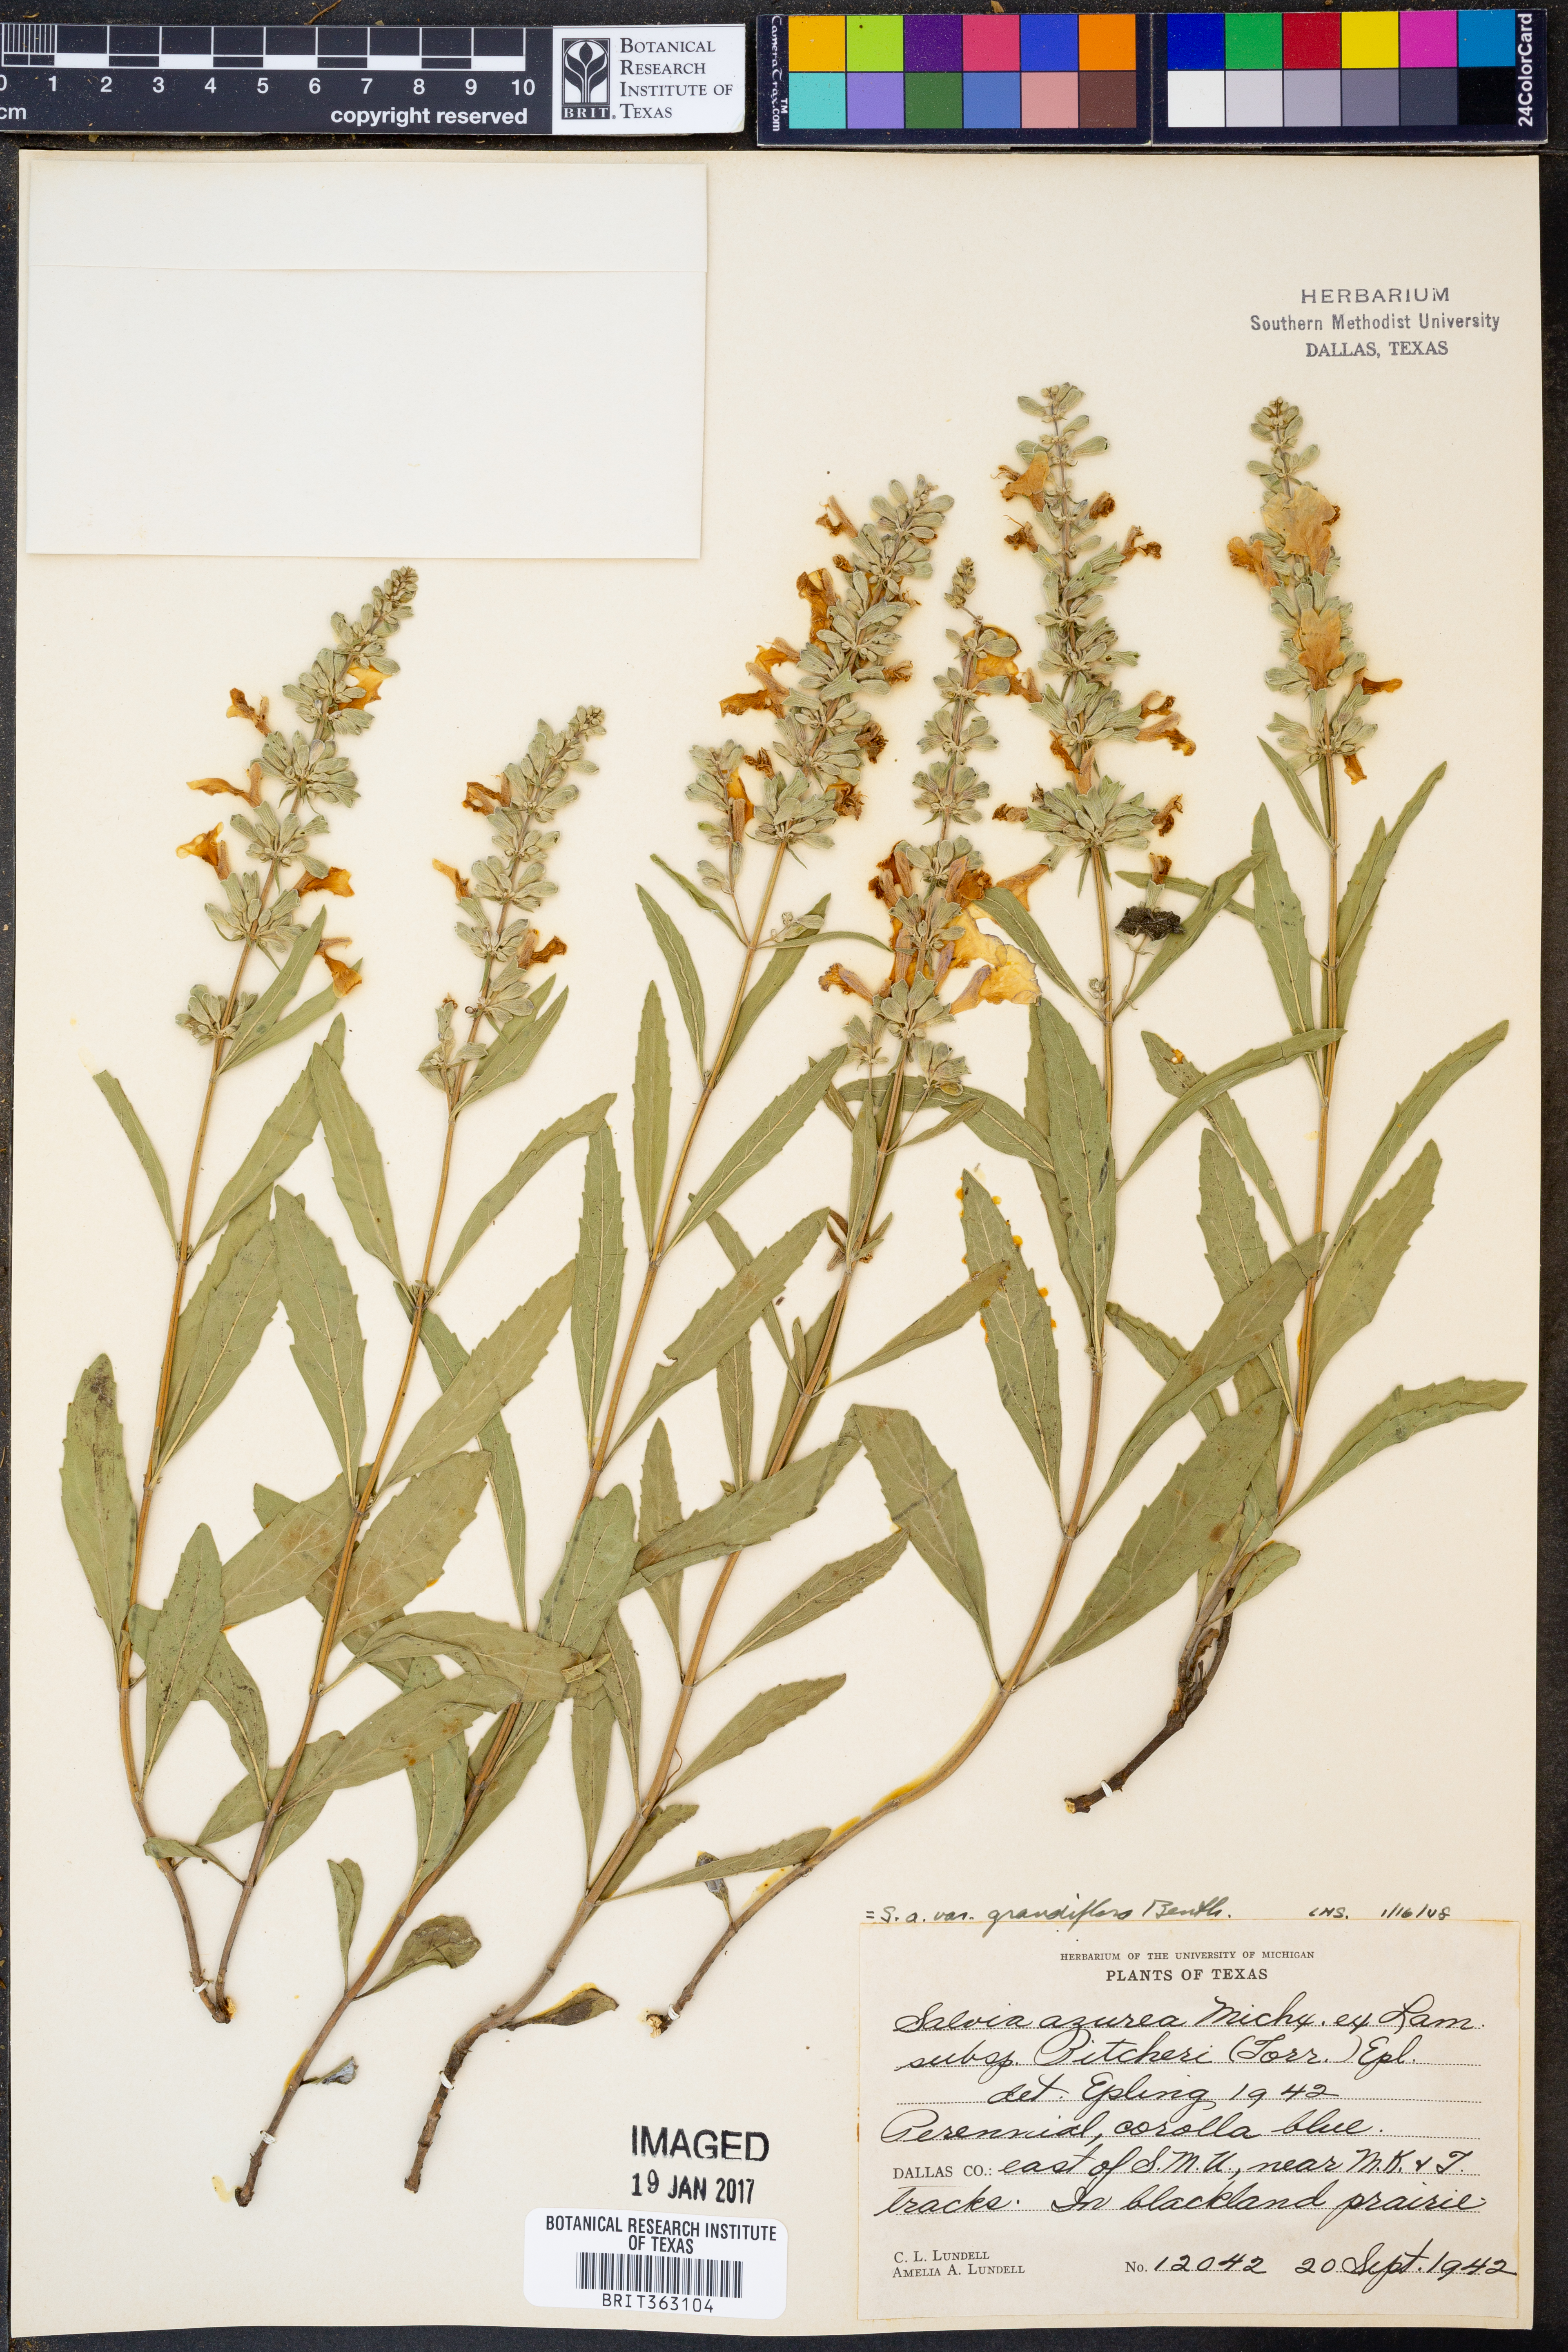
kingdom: Plantae
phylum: Tracheophyta
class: Magnoliopsida
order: Lamiales
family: Lamiaceae
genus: Salvia
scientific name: Salvia azurea
